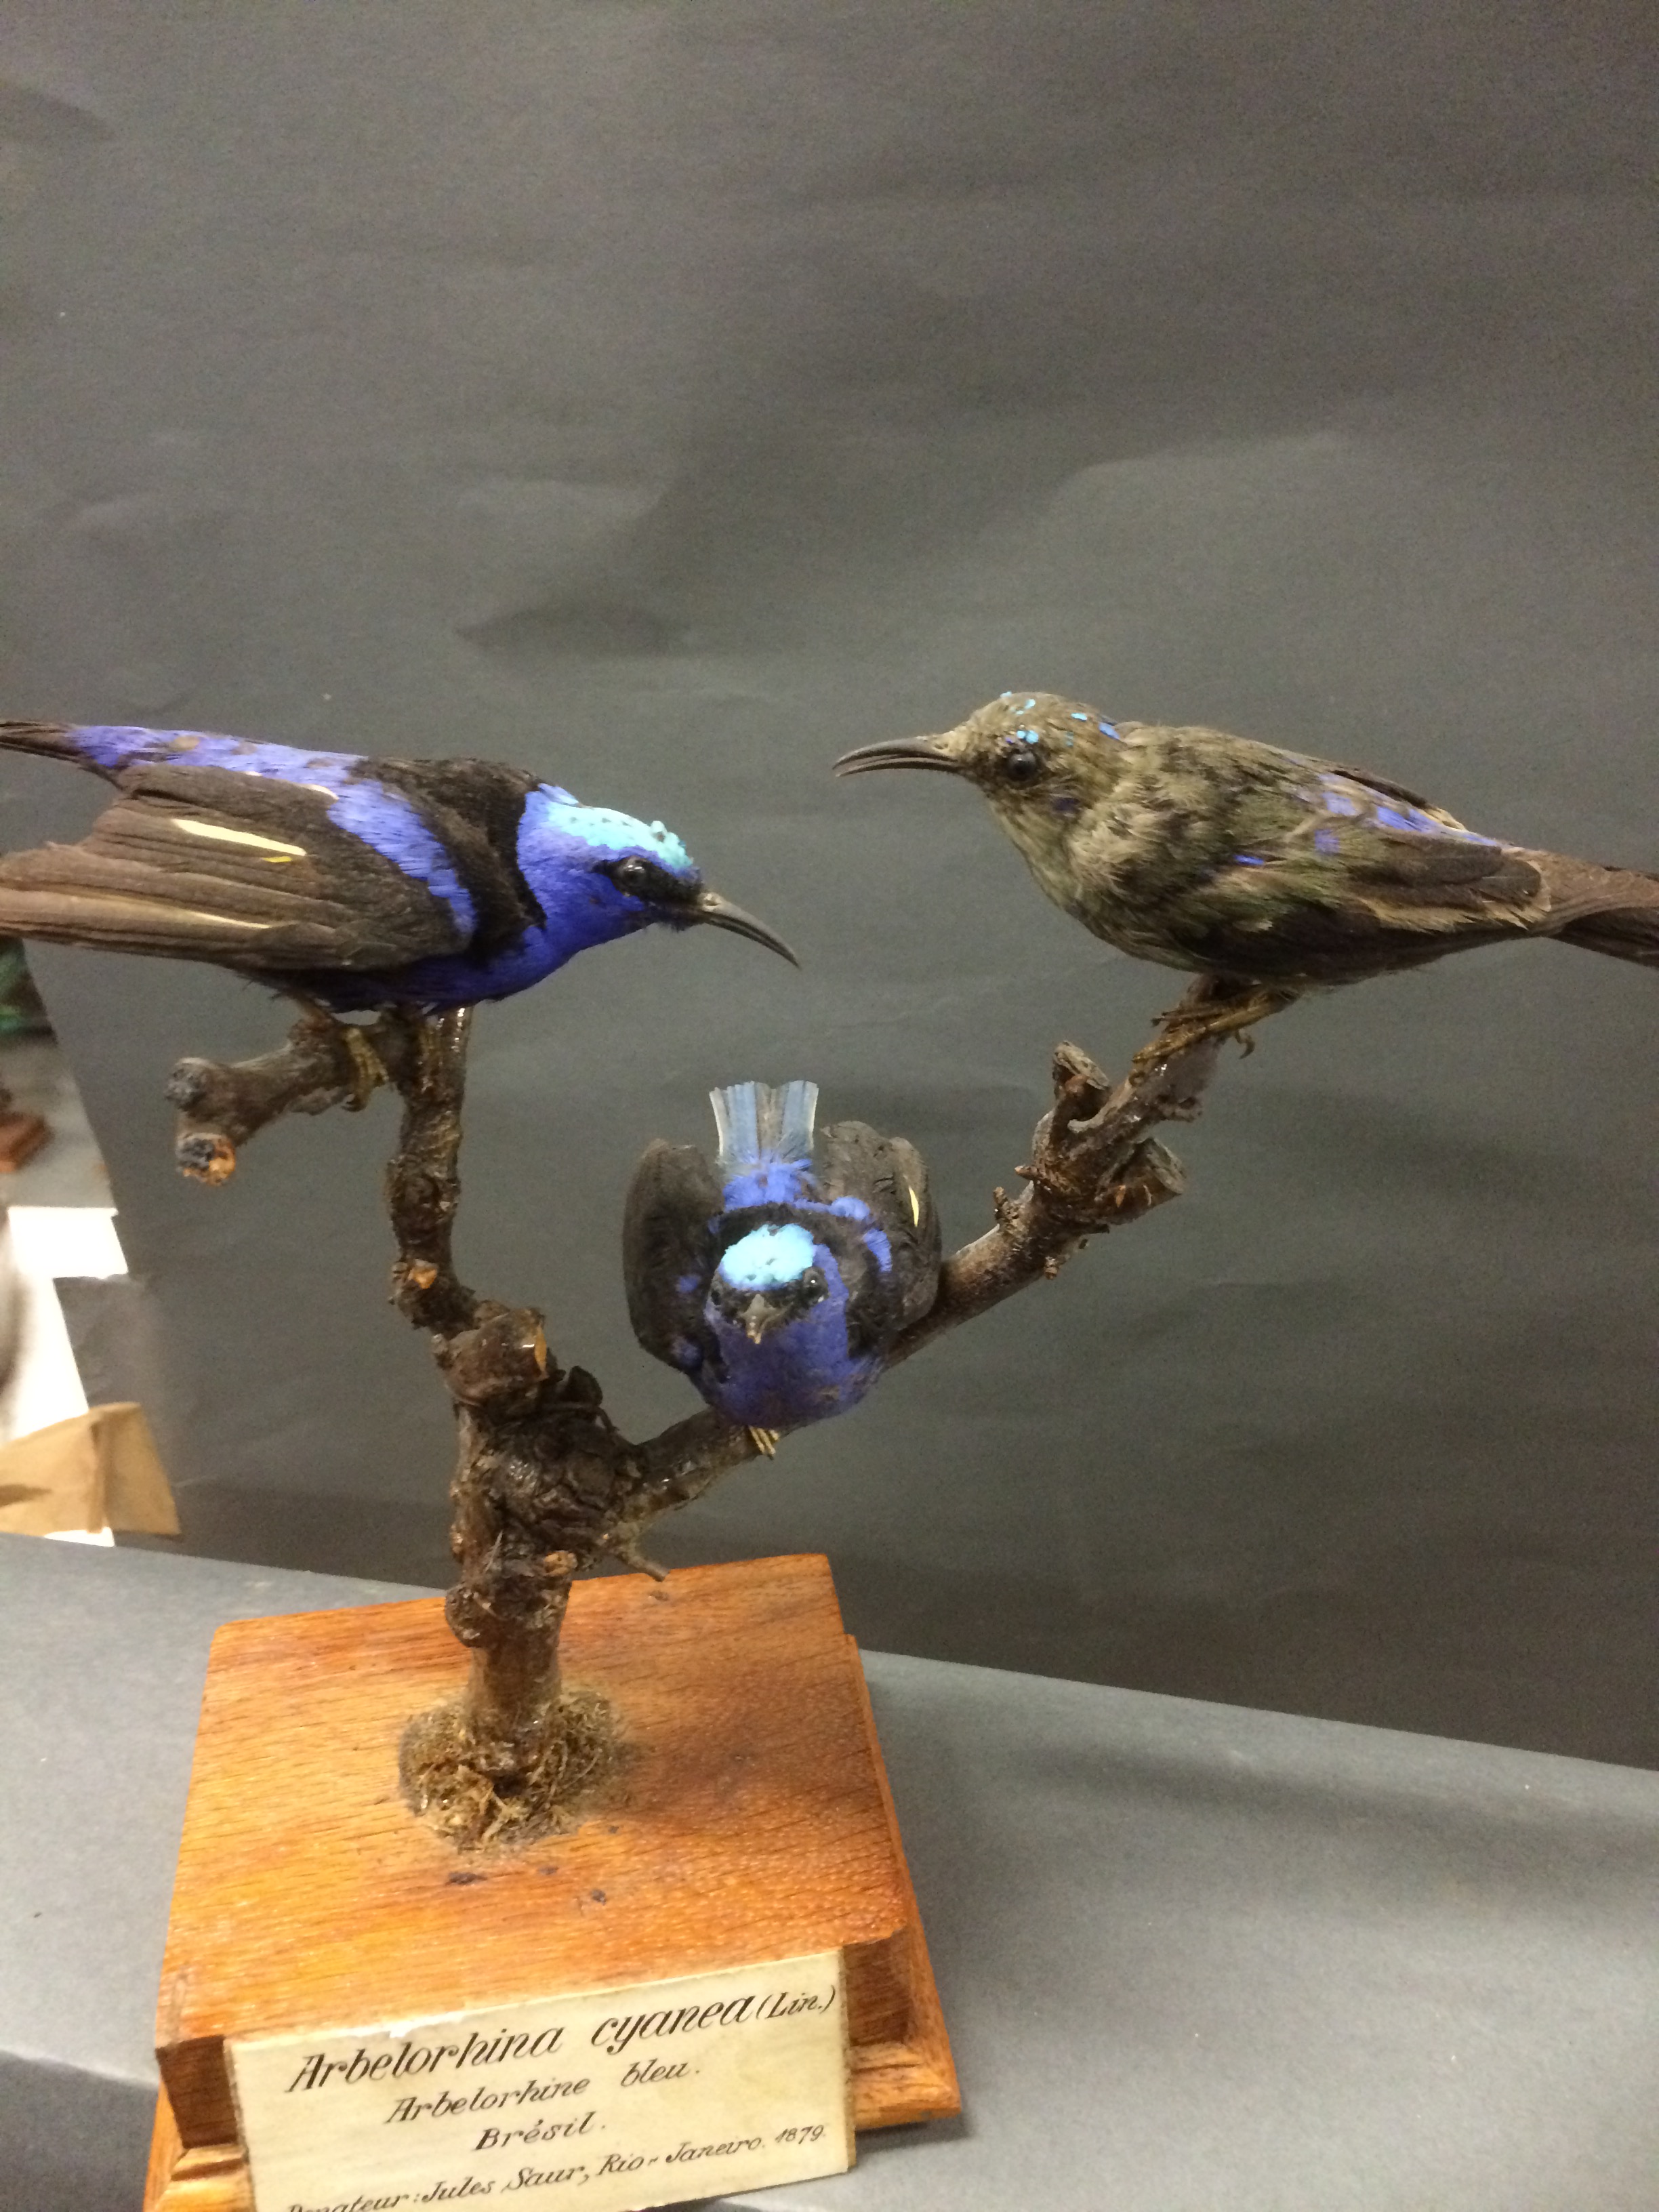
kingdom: Animalia
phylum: Chordata
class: Aves
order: Passeriformes
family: Thraupidae
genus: Cyanerpes
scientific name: Cyanerpes cyaneus
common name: Red-legged honeycreeper
